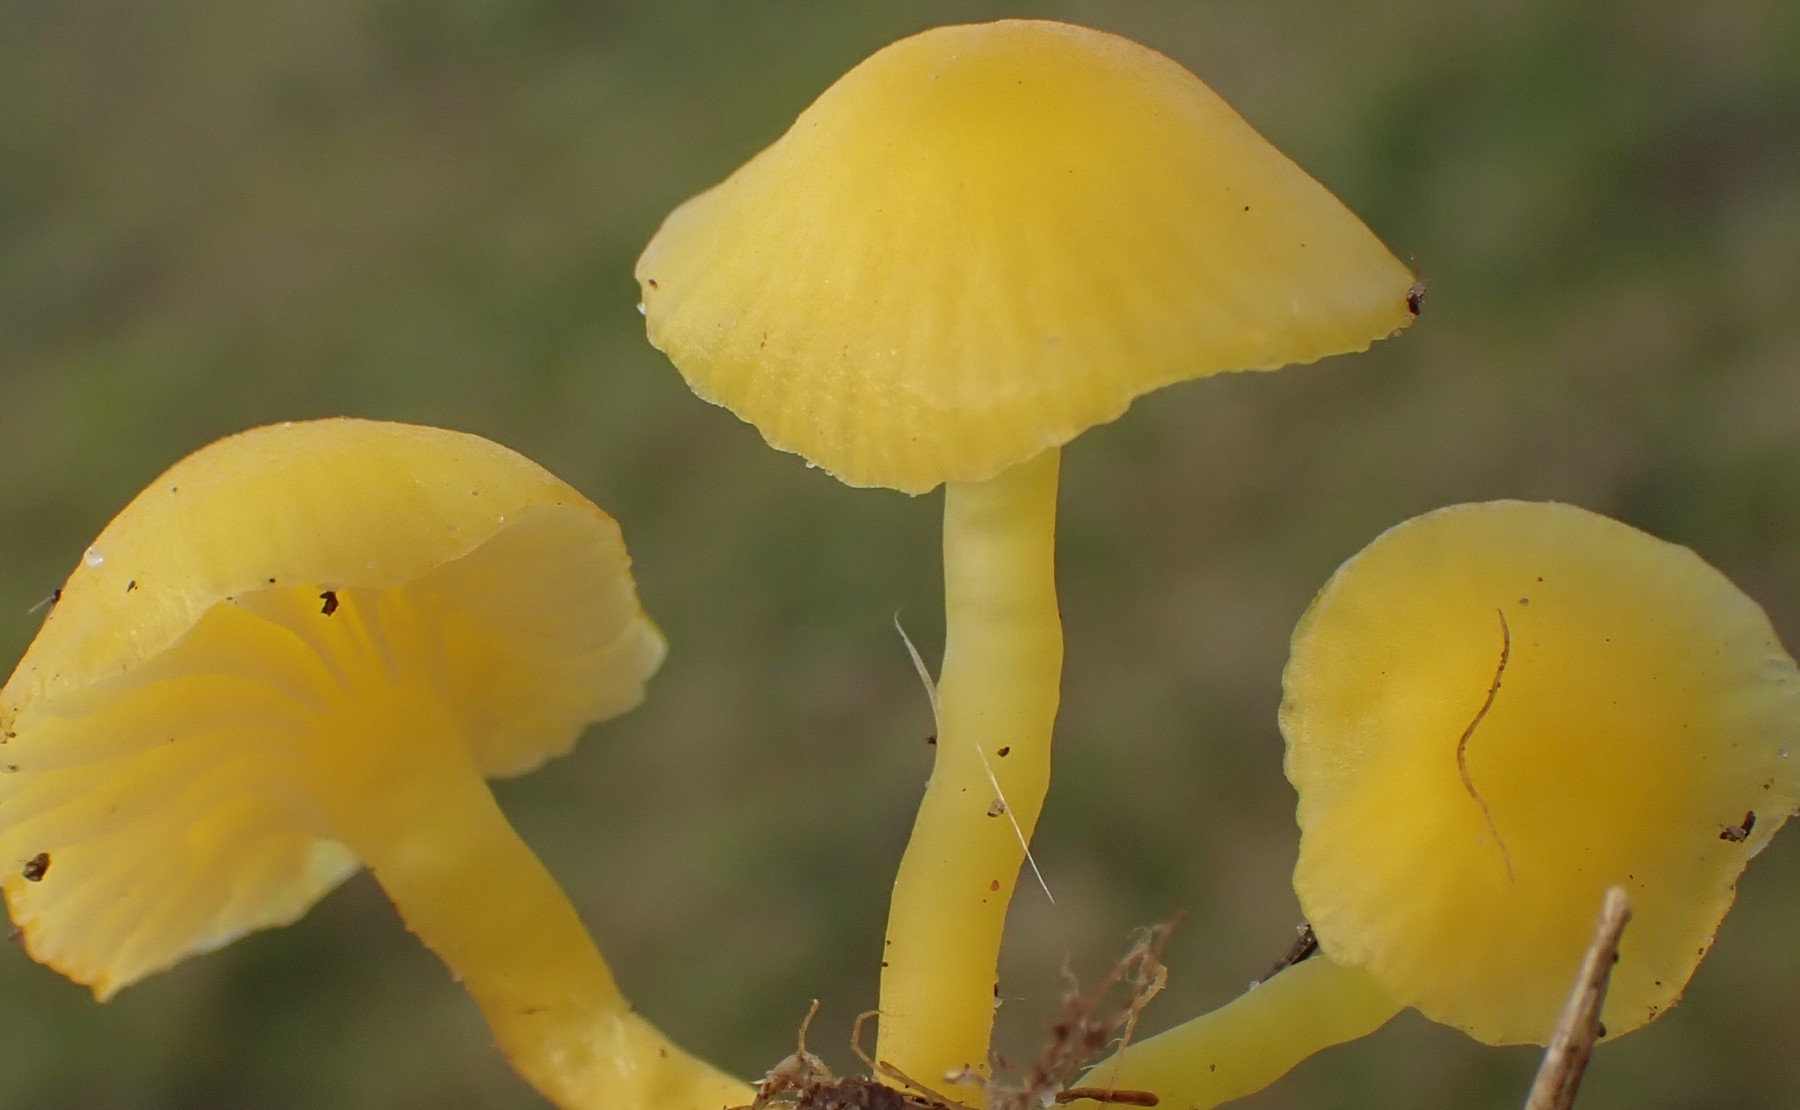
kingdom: Fungi
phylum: Basidiomycota
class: Agaricomycetes
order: Agaricales
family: Hygrophoraceae
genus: Hygrocybe
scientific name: Hygrocybe ceracea
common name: voksgul vokshat
